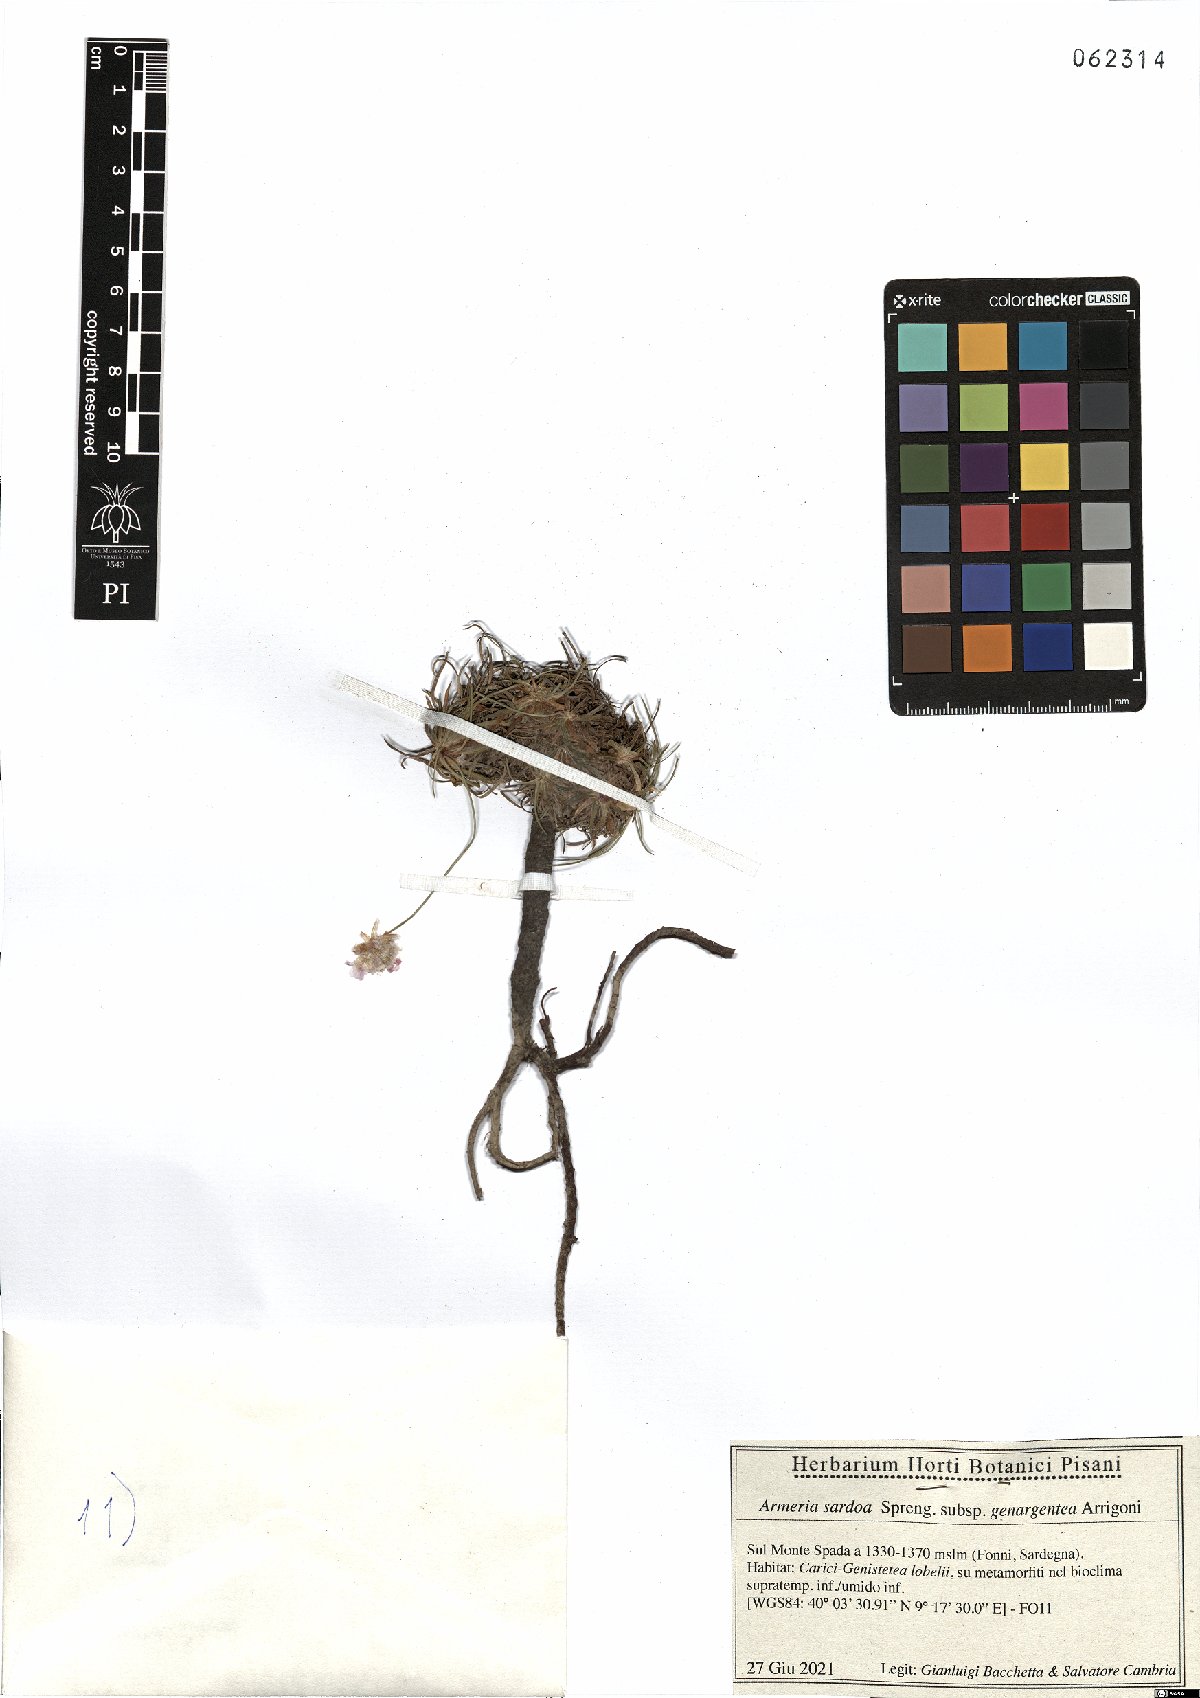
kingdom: Plantae
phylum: Tracheophyta
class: Magnoliopsida
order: Caryophyllales
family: Plumbaginaceae
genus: Armeria
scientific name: Armeria sardoa
